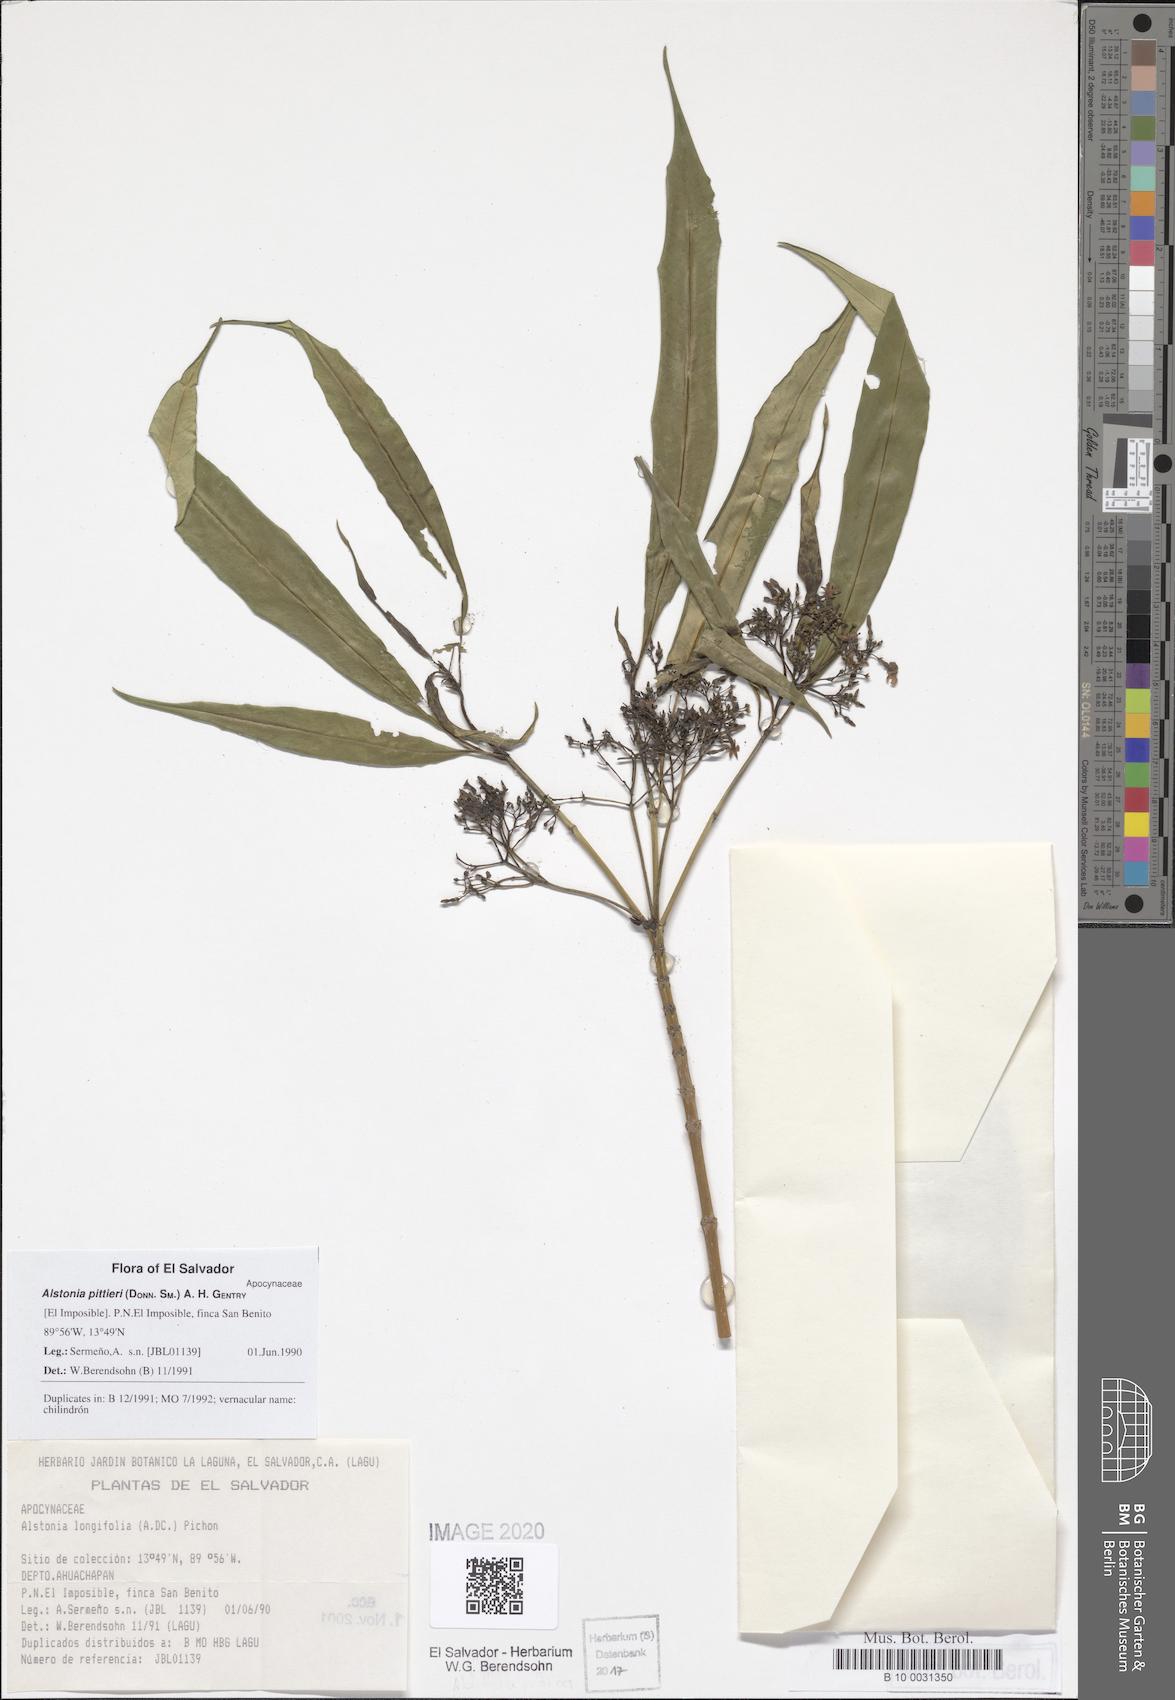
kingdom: Plantae
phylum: Tracheophyta
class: Magnoliopsida
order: Gentianales
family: Apocynaceae
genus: Tonduzia
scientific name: Tonduzia longifolia
